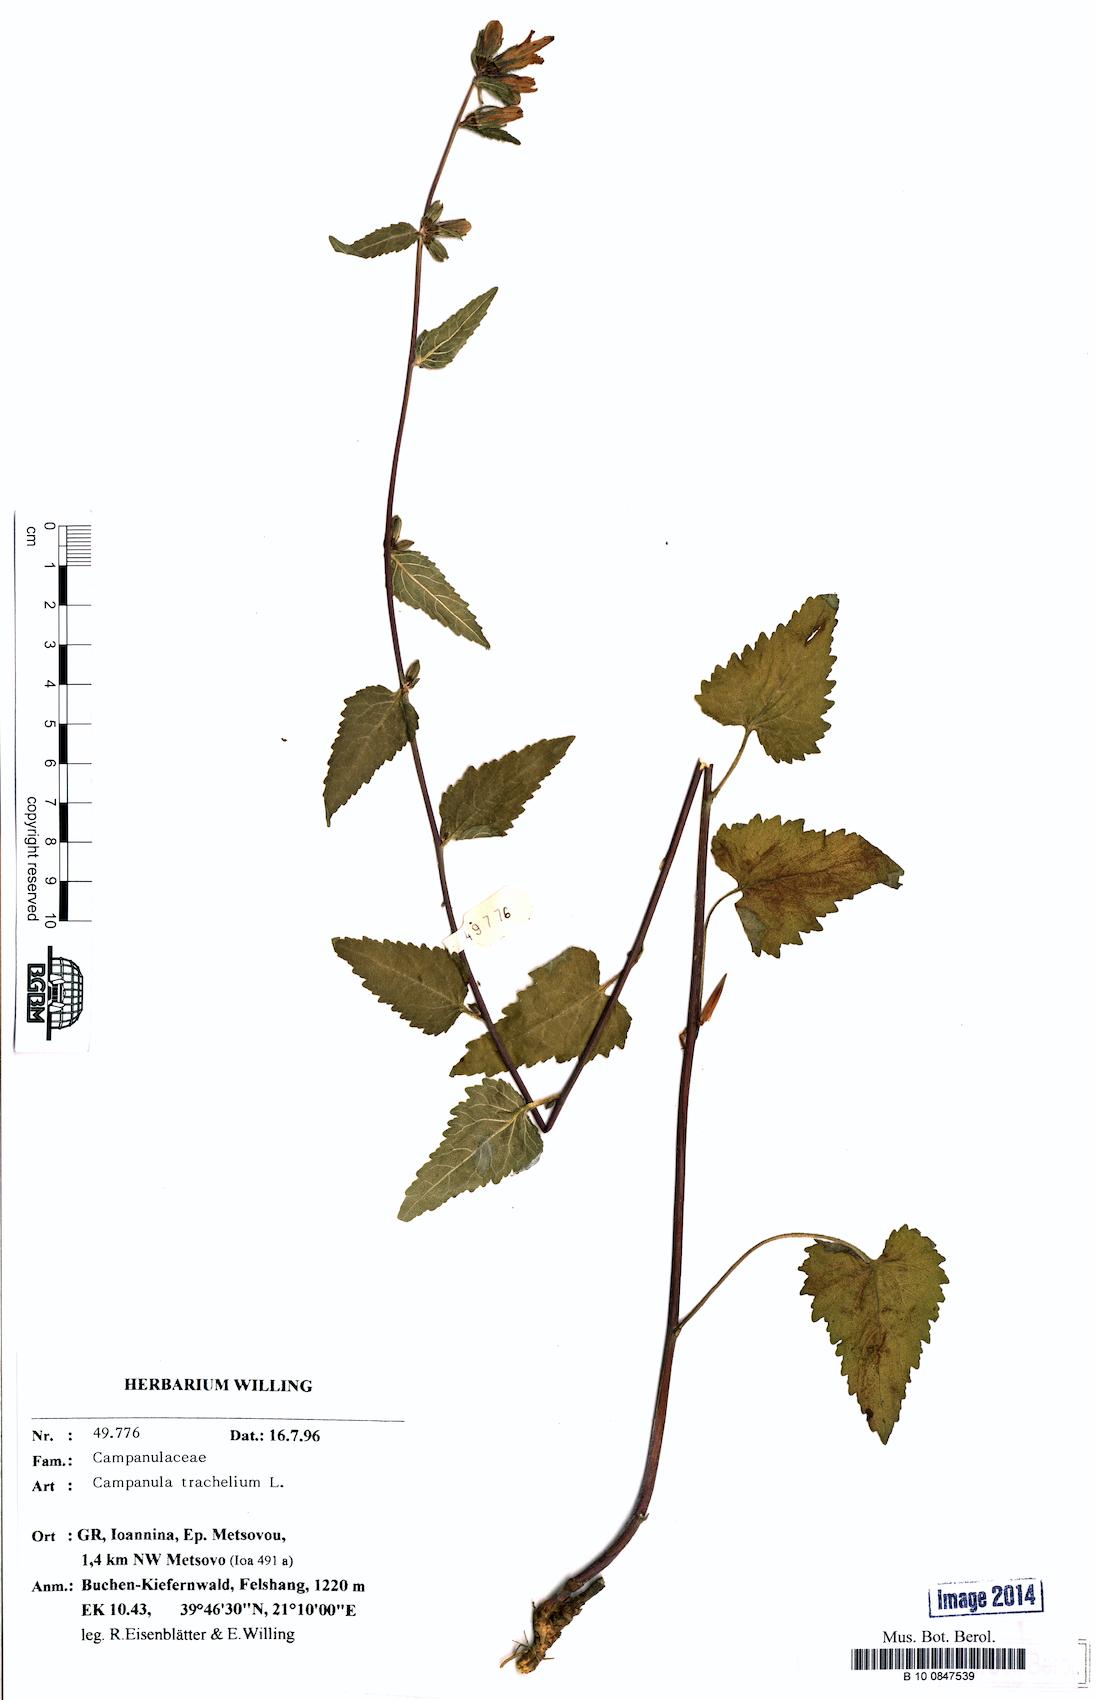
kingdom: Plantae
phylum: Tracheophyta
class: Magnoliopsida
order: Asterales
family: Campanulaceae
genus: Campanula
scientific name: Campanula trachelium
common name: Nettle-leaved bellflower
